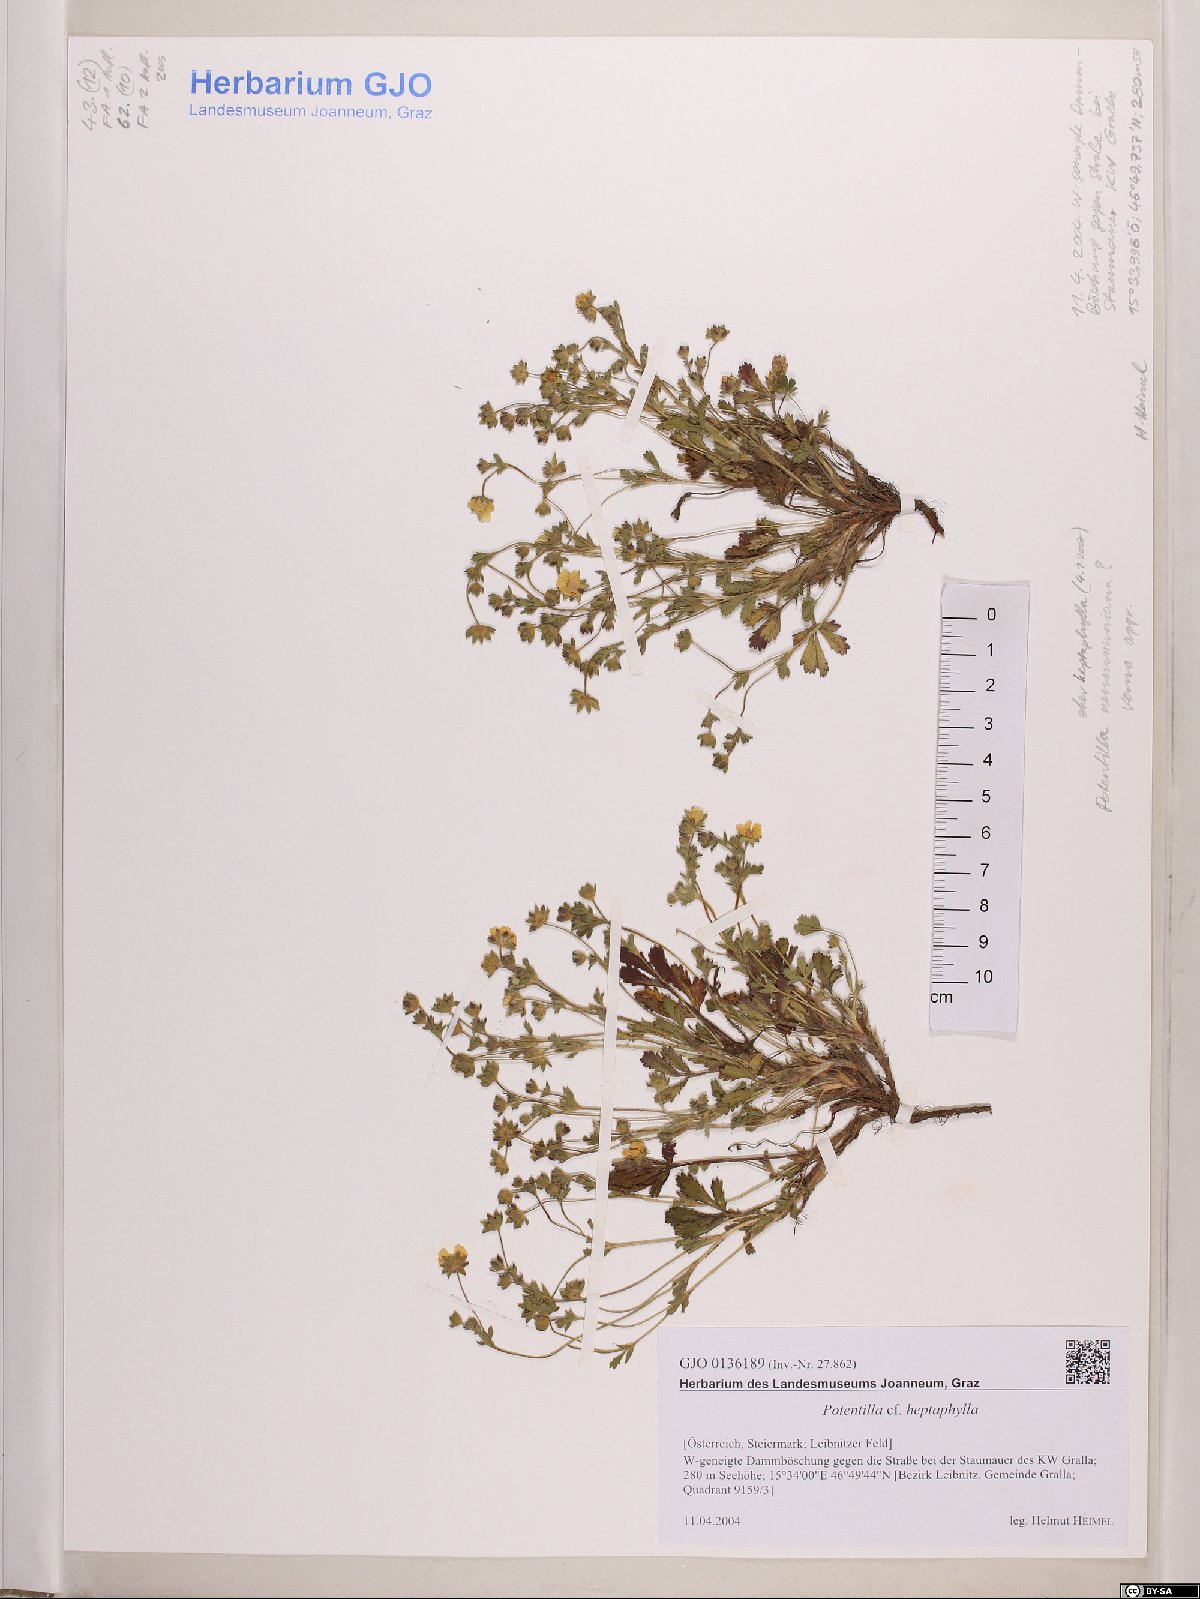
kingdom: Plantae
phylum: Tracheophyta
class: Magnoliopsida
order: Rosales
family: Rosaceae
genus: Potentilla
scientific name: Potentilla heptaphylla
